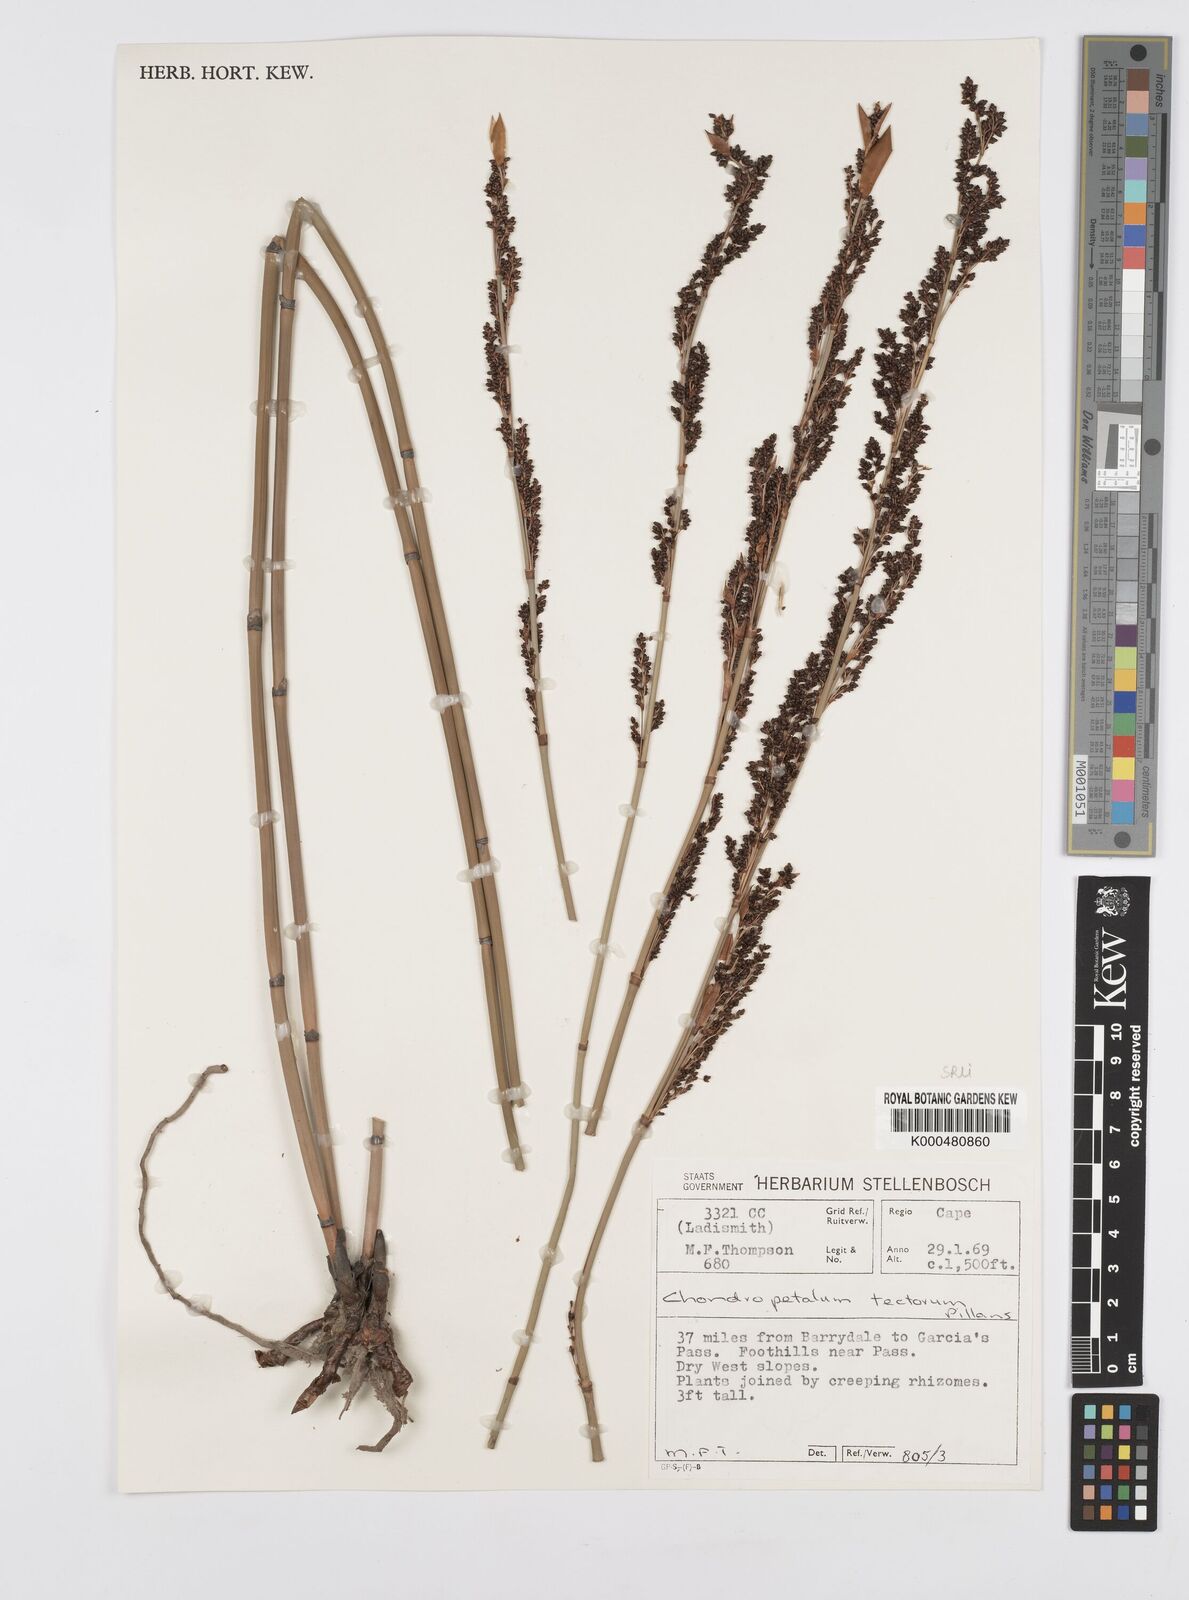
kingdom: Plantae
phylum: Tracheophyta
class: Liliopsida
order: Poales
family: Restionaceae
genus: Elegia
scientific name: Elegia macrocarpa
